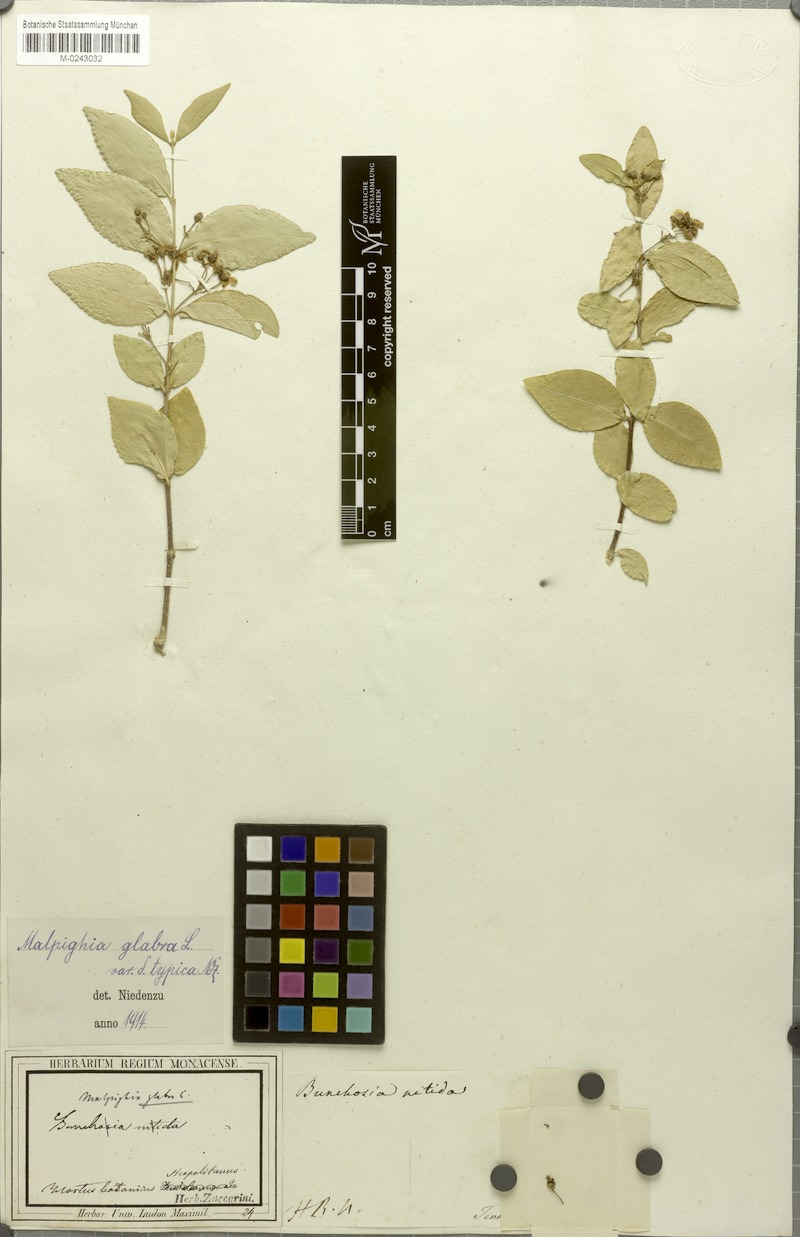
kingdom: Plantae
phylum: Tracheophyta
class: Magnoliopsida
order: Malpighiales
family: Malpighiaceae
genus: Malpighia
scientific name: Malpighia glabra
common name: Barbados cherry
